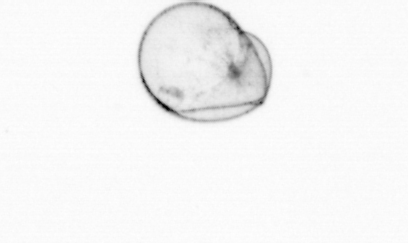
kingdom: Chromista
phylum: Myzozoa
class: Dinophyceae
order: Noctilucales
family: Noctilucaceae
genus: Noctiluca
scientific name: Noctiluca scintillans
